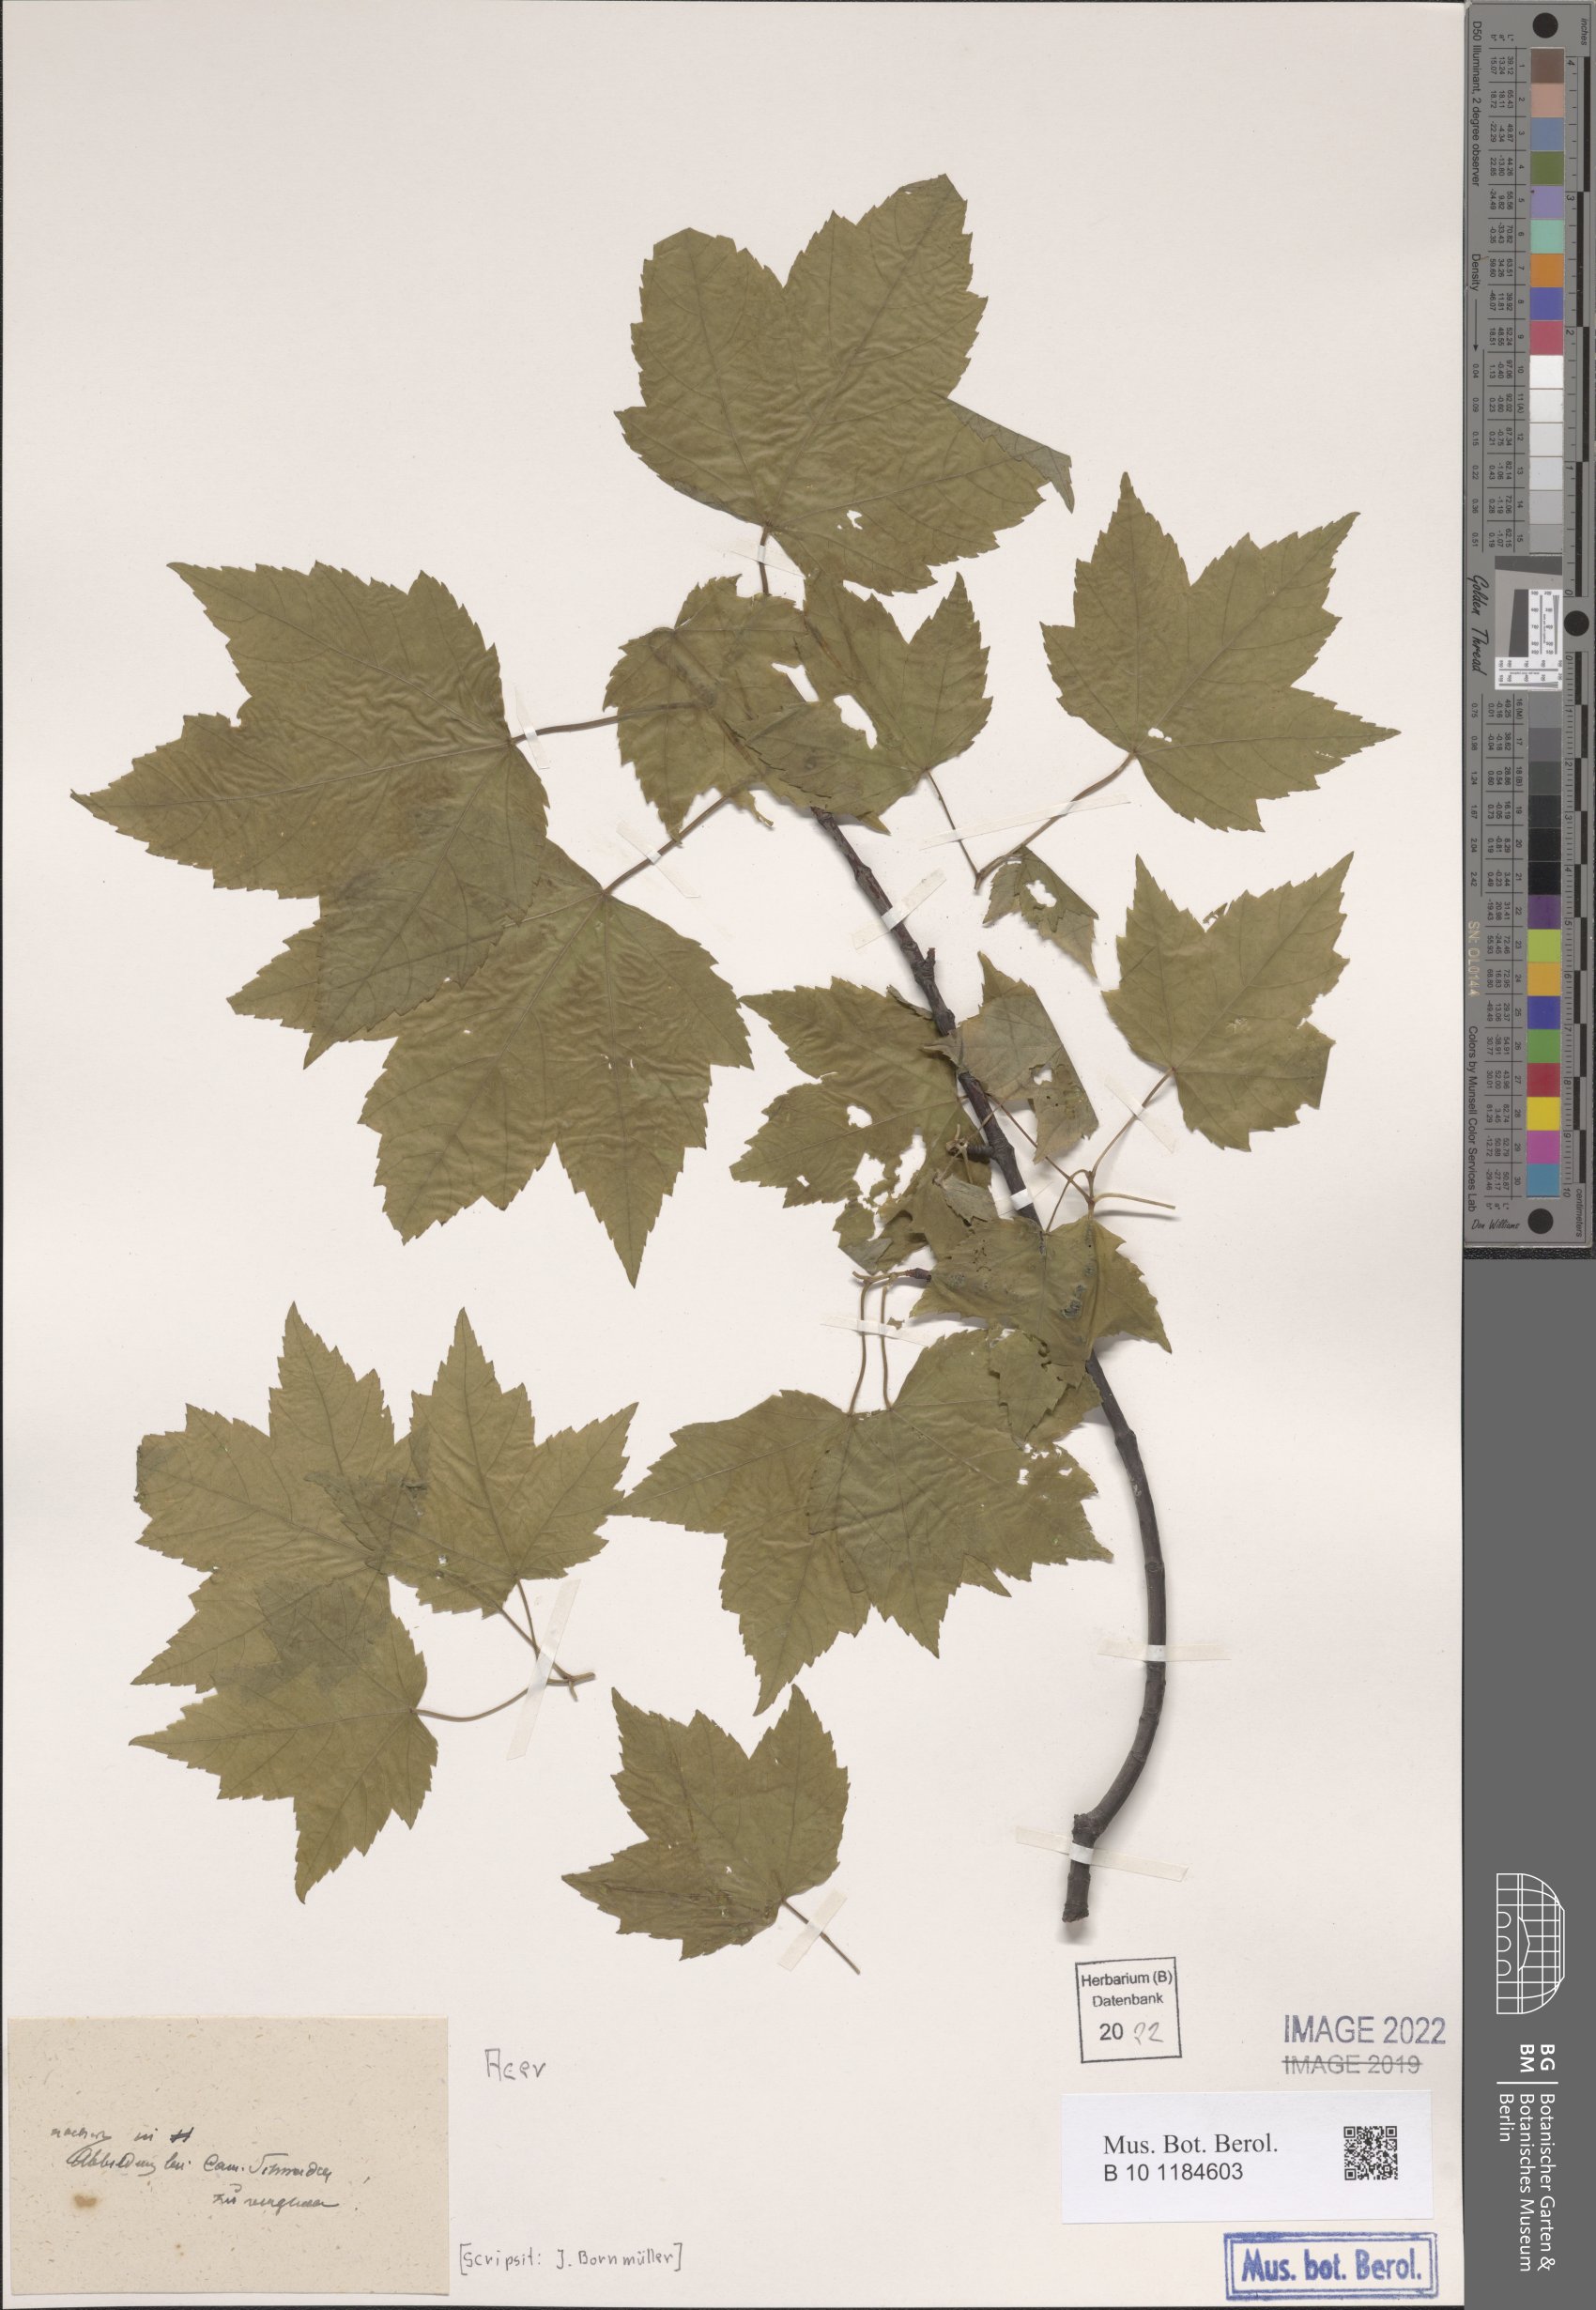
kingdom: Plantae
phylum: Tracheophyta
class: Magnoliopsida
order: Sapindales
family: Sapindaceae
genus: Acer
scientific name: Acer
